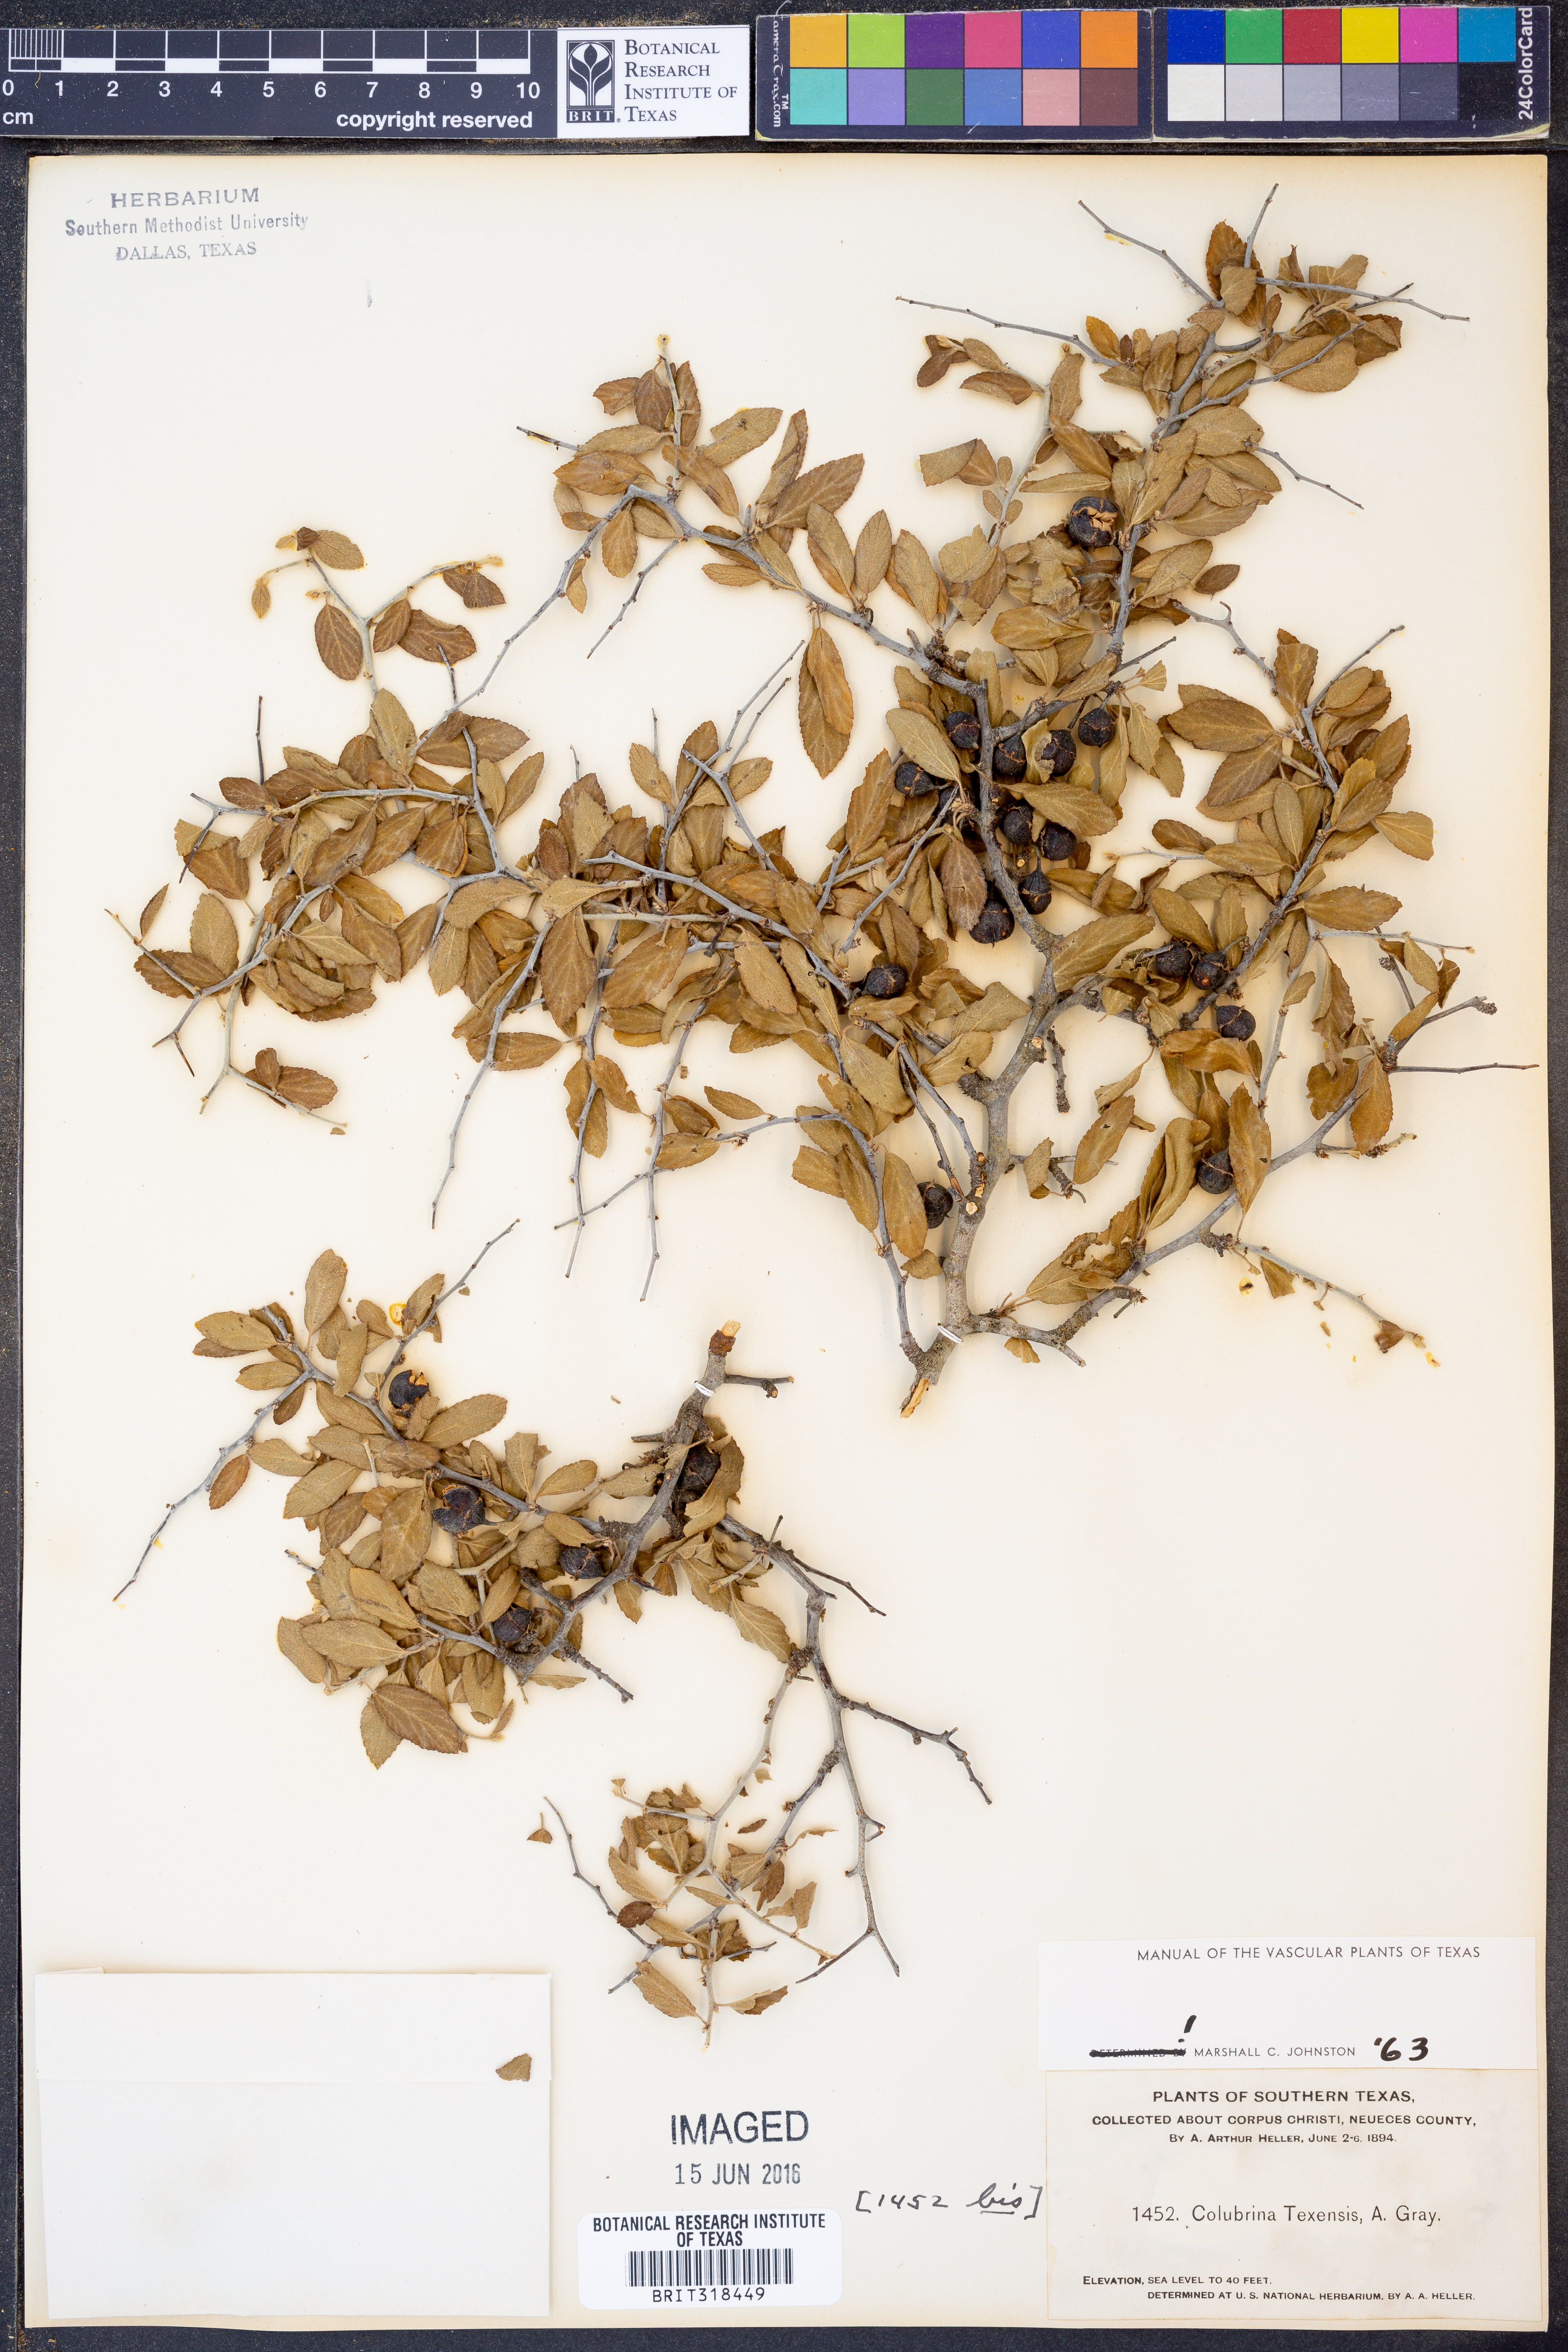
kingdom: Plantae
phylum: Tracheophyta
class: Magnoliopsida
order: Rosales
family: Rhamnaceae
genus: Colubrina
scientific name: Colubrina texensis
